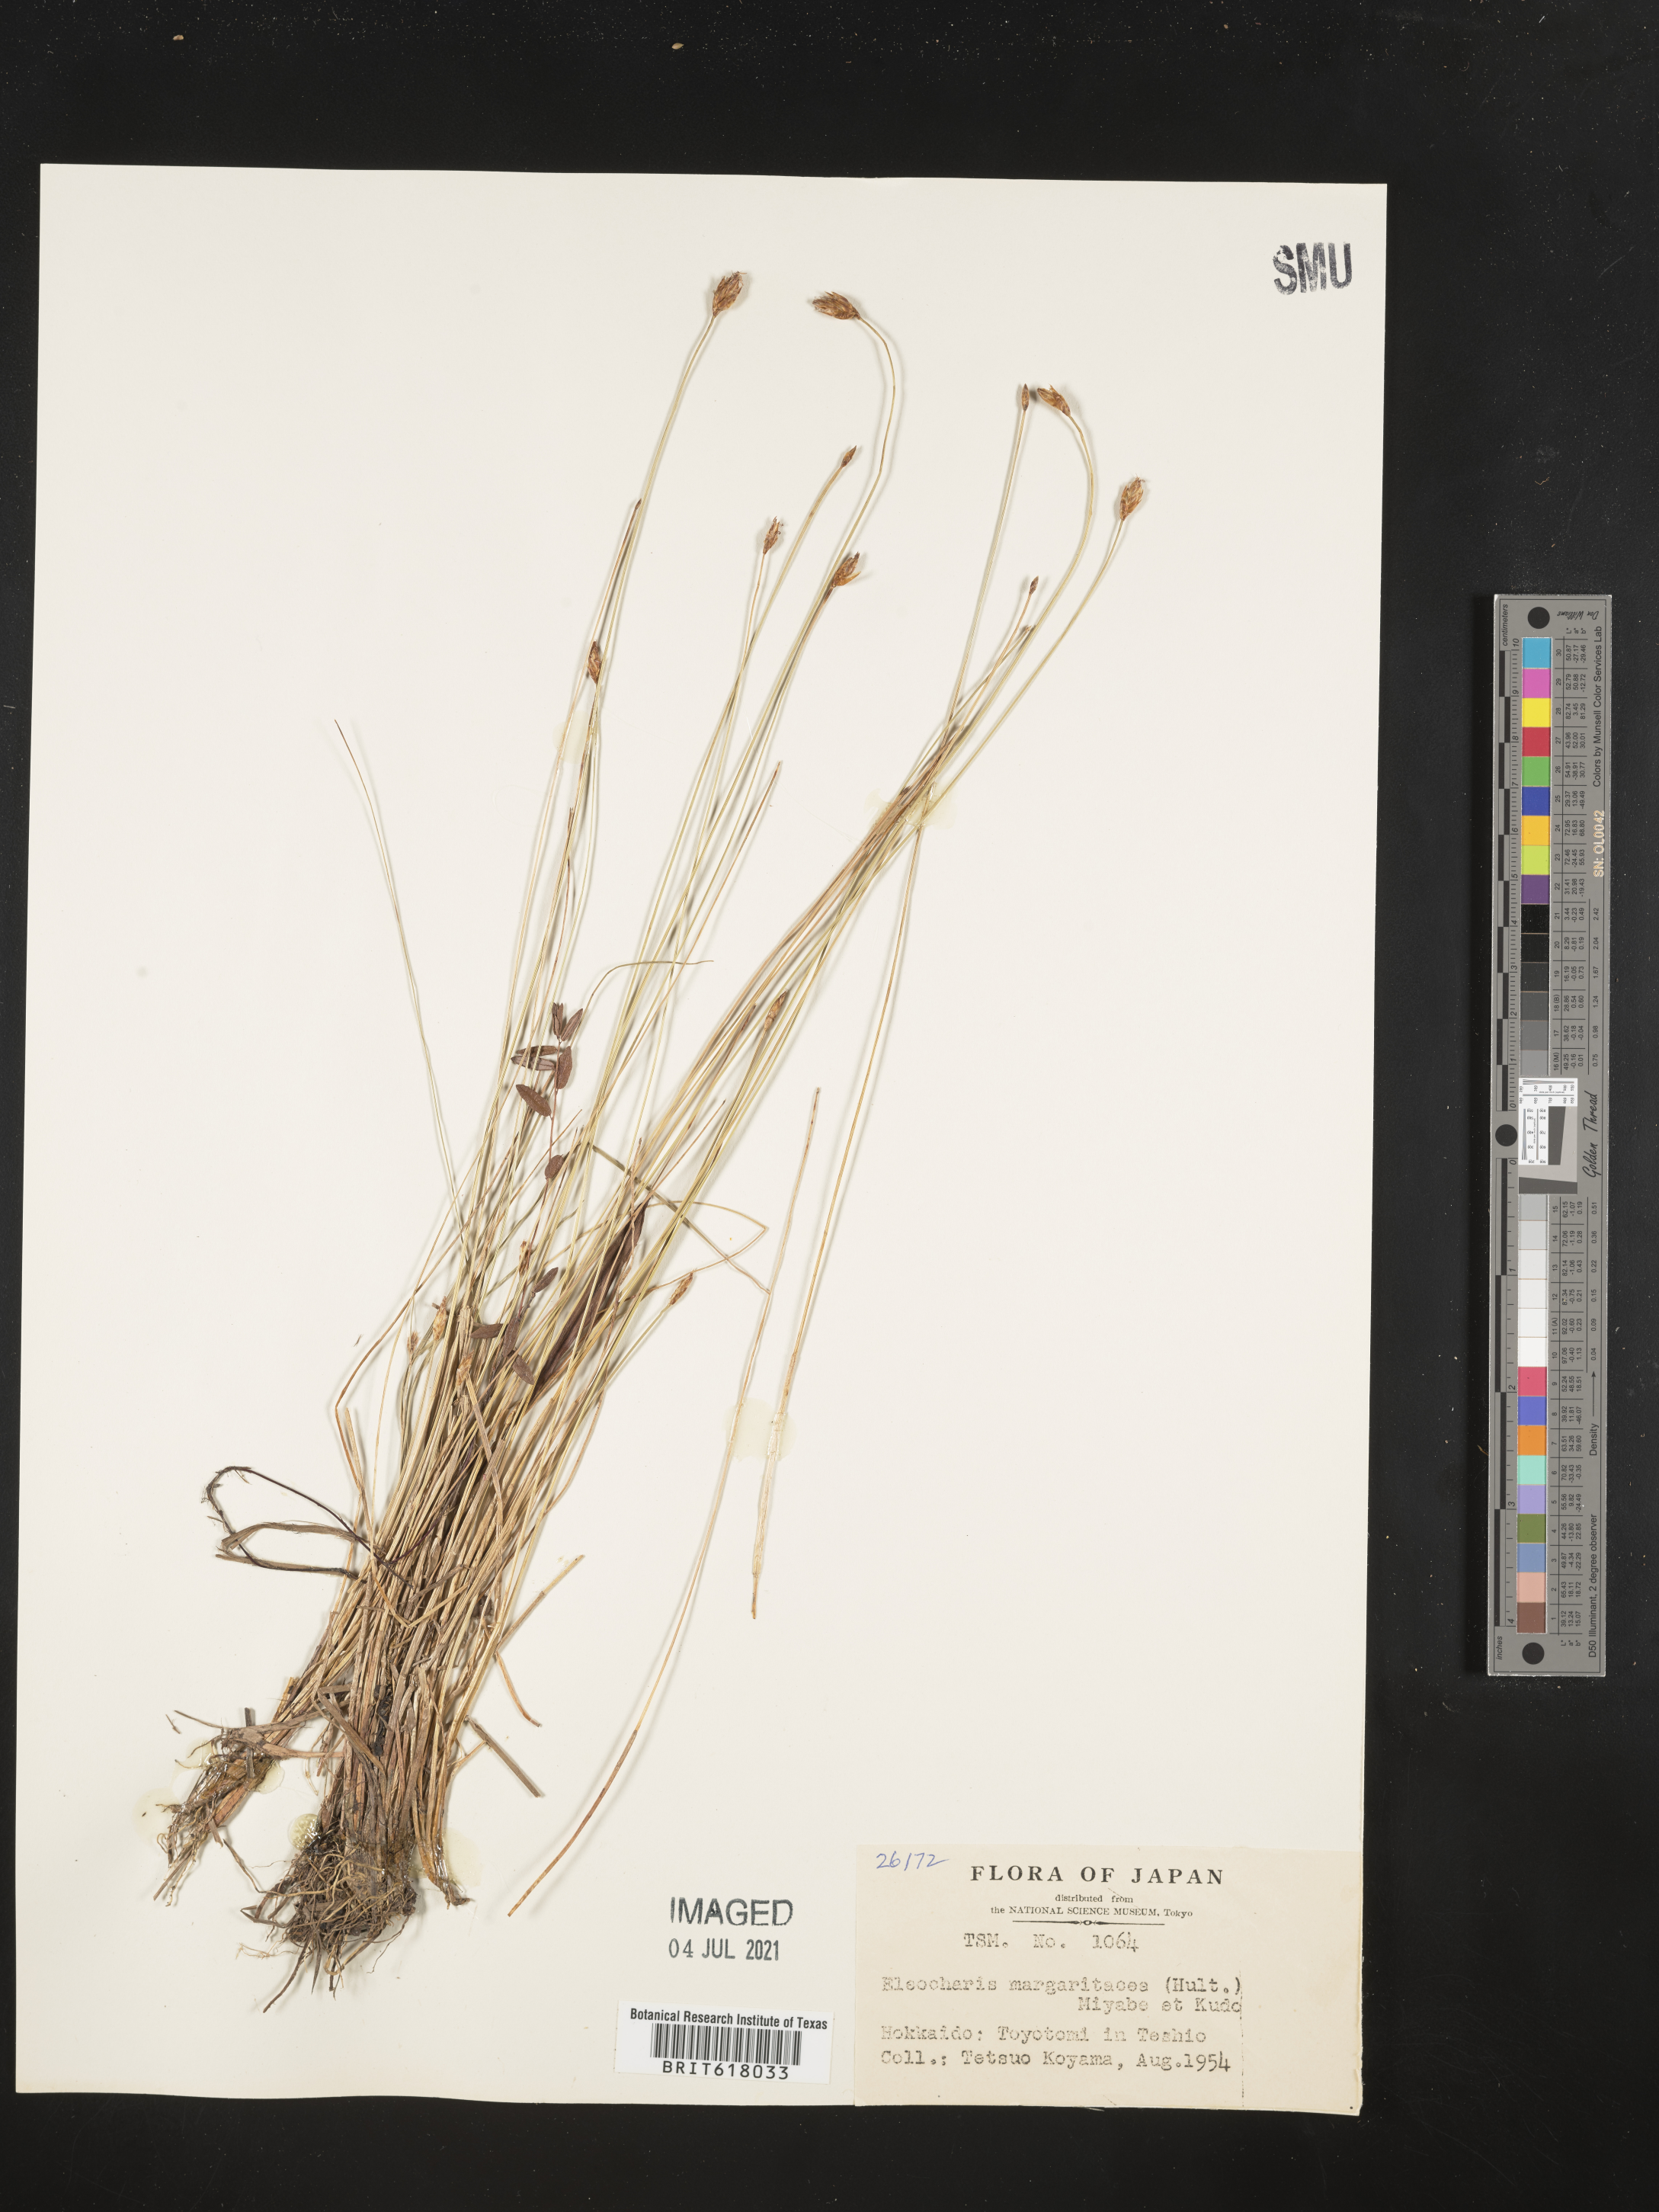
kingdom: Plantae
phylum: Tracheophyta
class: Liliopsida
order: Poales
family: Cyperaceae
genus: Eleocharis
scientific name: Eleocharis margaritacea
